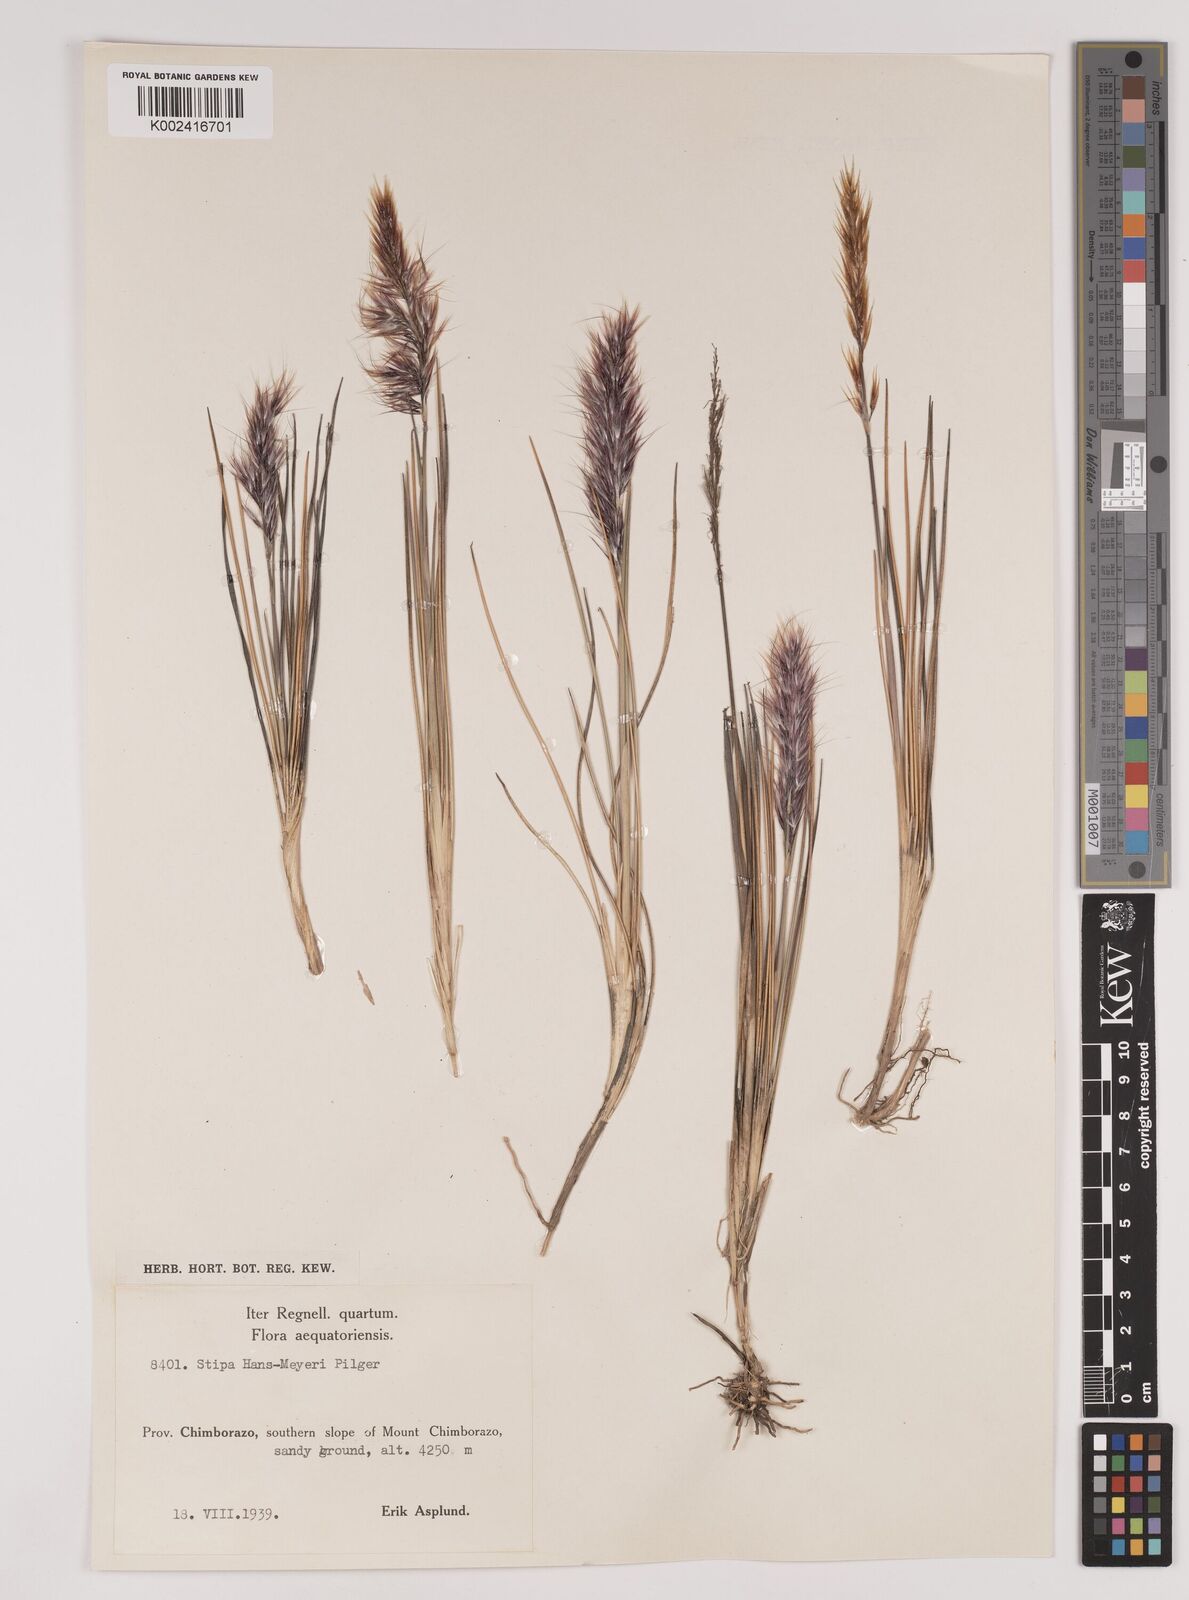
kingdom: Plantae
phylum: Tracheophyta
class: Liliopsida
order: Poales
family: Poaceae
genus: Stipa
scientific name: Stipa hans-meyeri
